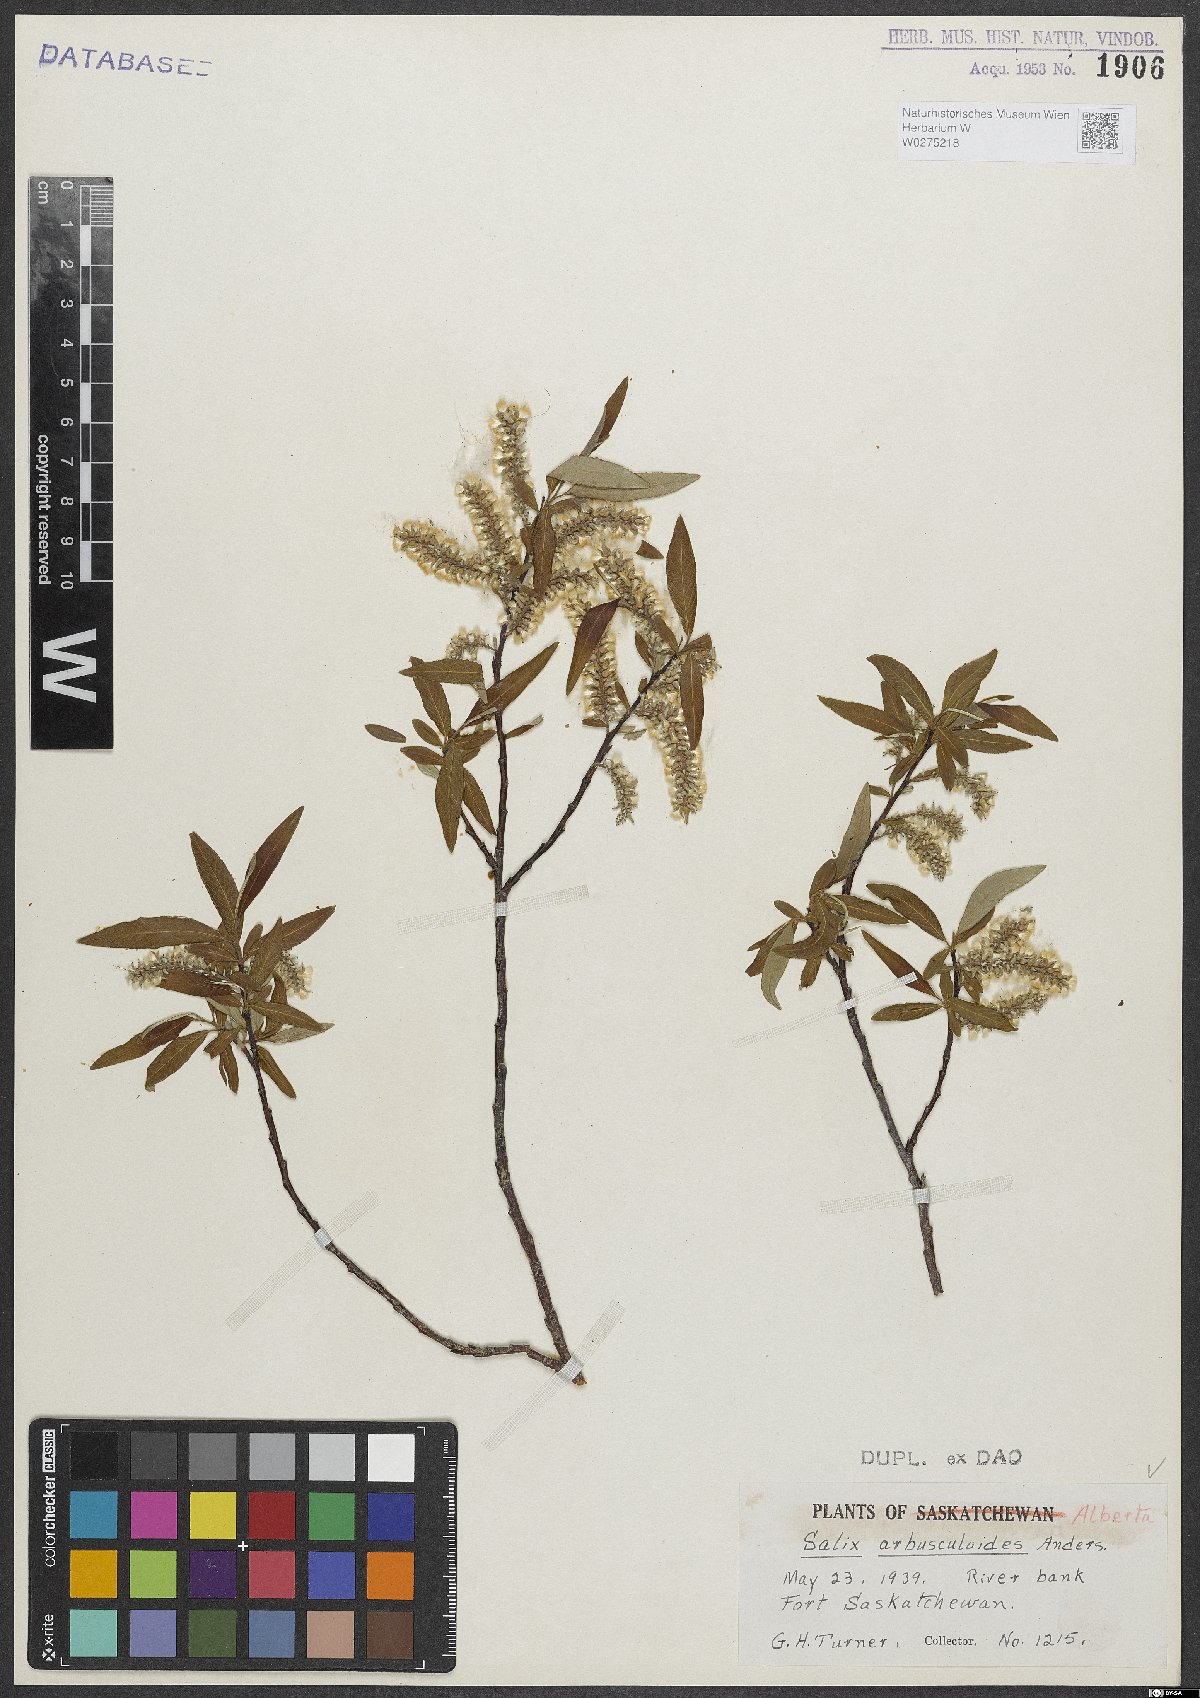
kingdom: Plantae
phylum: Tracheophyta
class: Magnoliopsida
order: Malpighiales
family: Salicaceae
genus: Salix
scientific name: Salix arbusculoides
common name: Little-tree willow
